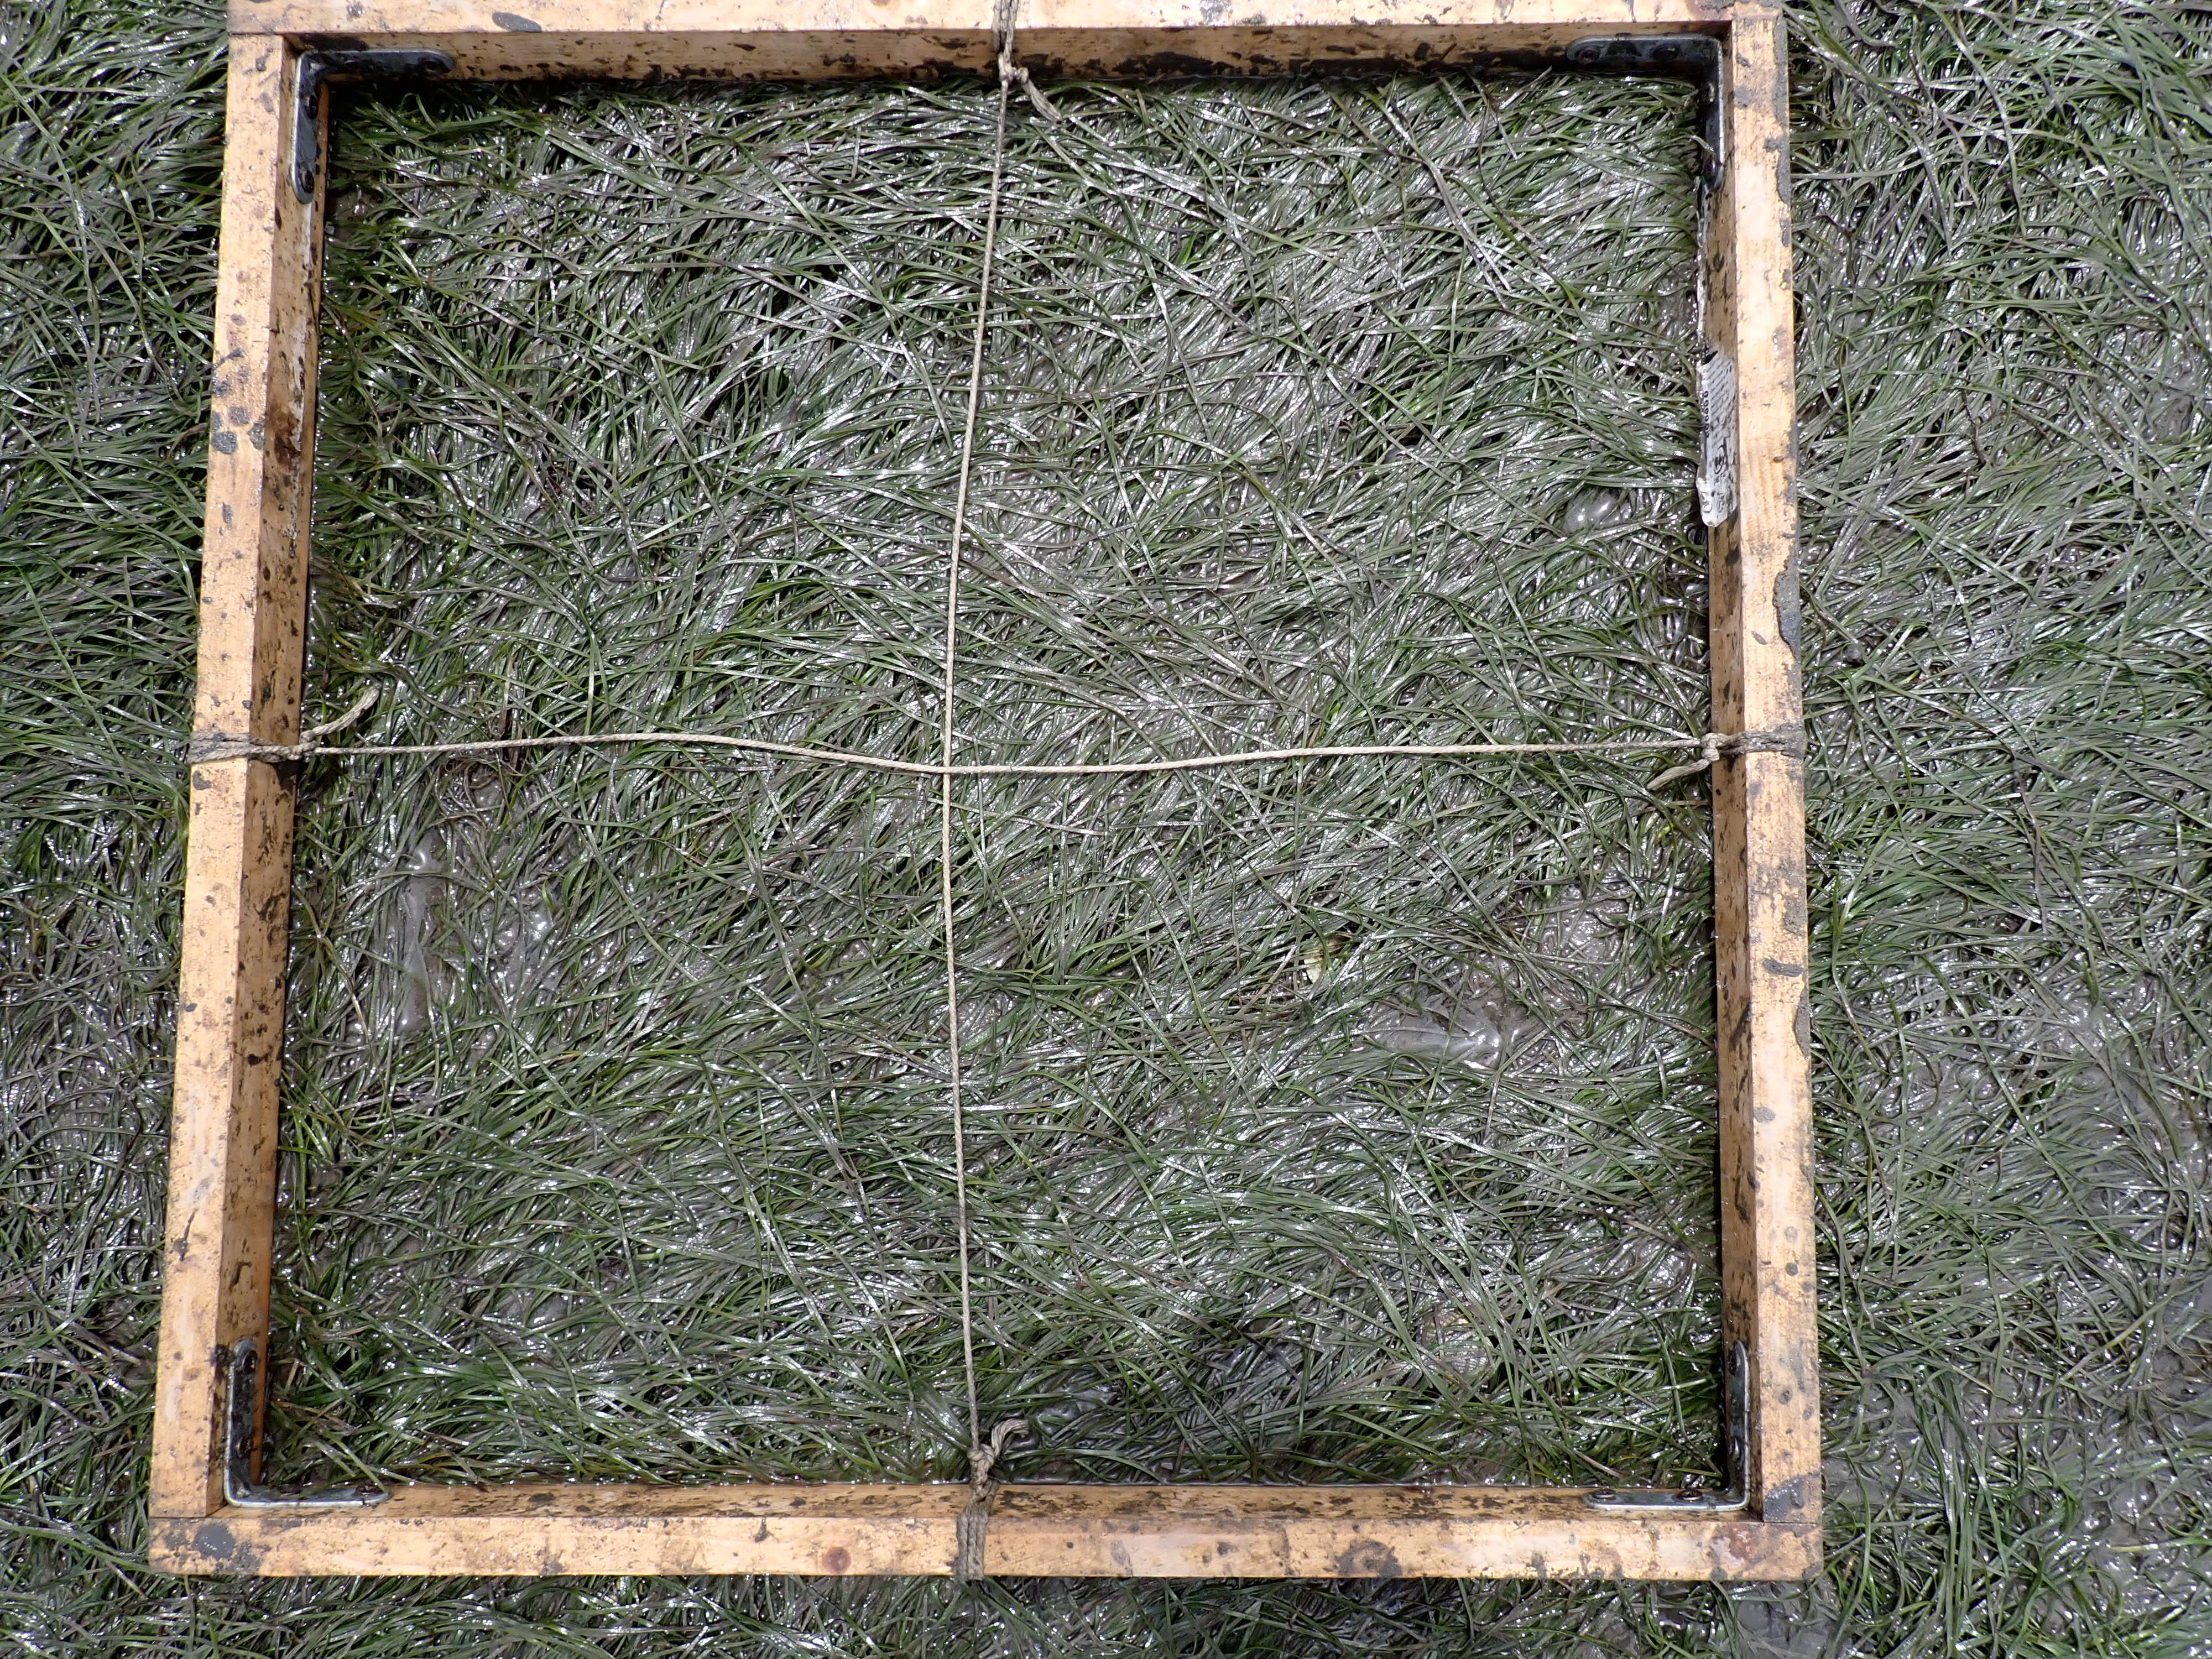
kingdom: Plantae
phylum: Tracheophyta
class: Liliopsida
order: Alismatales
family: Zosteraceae
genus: Zostera
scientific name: Zostera noltii
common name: Dwarf eelgrass
